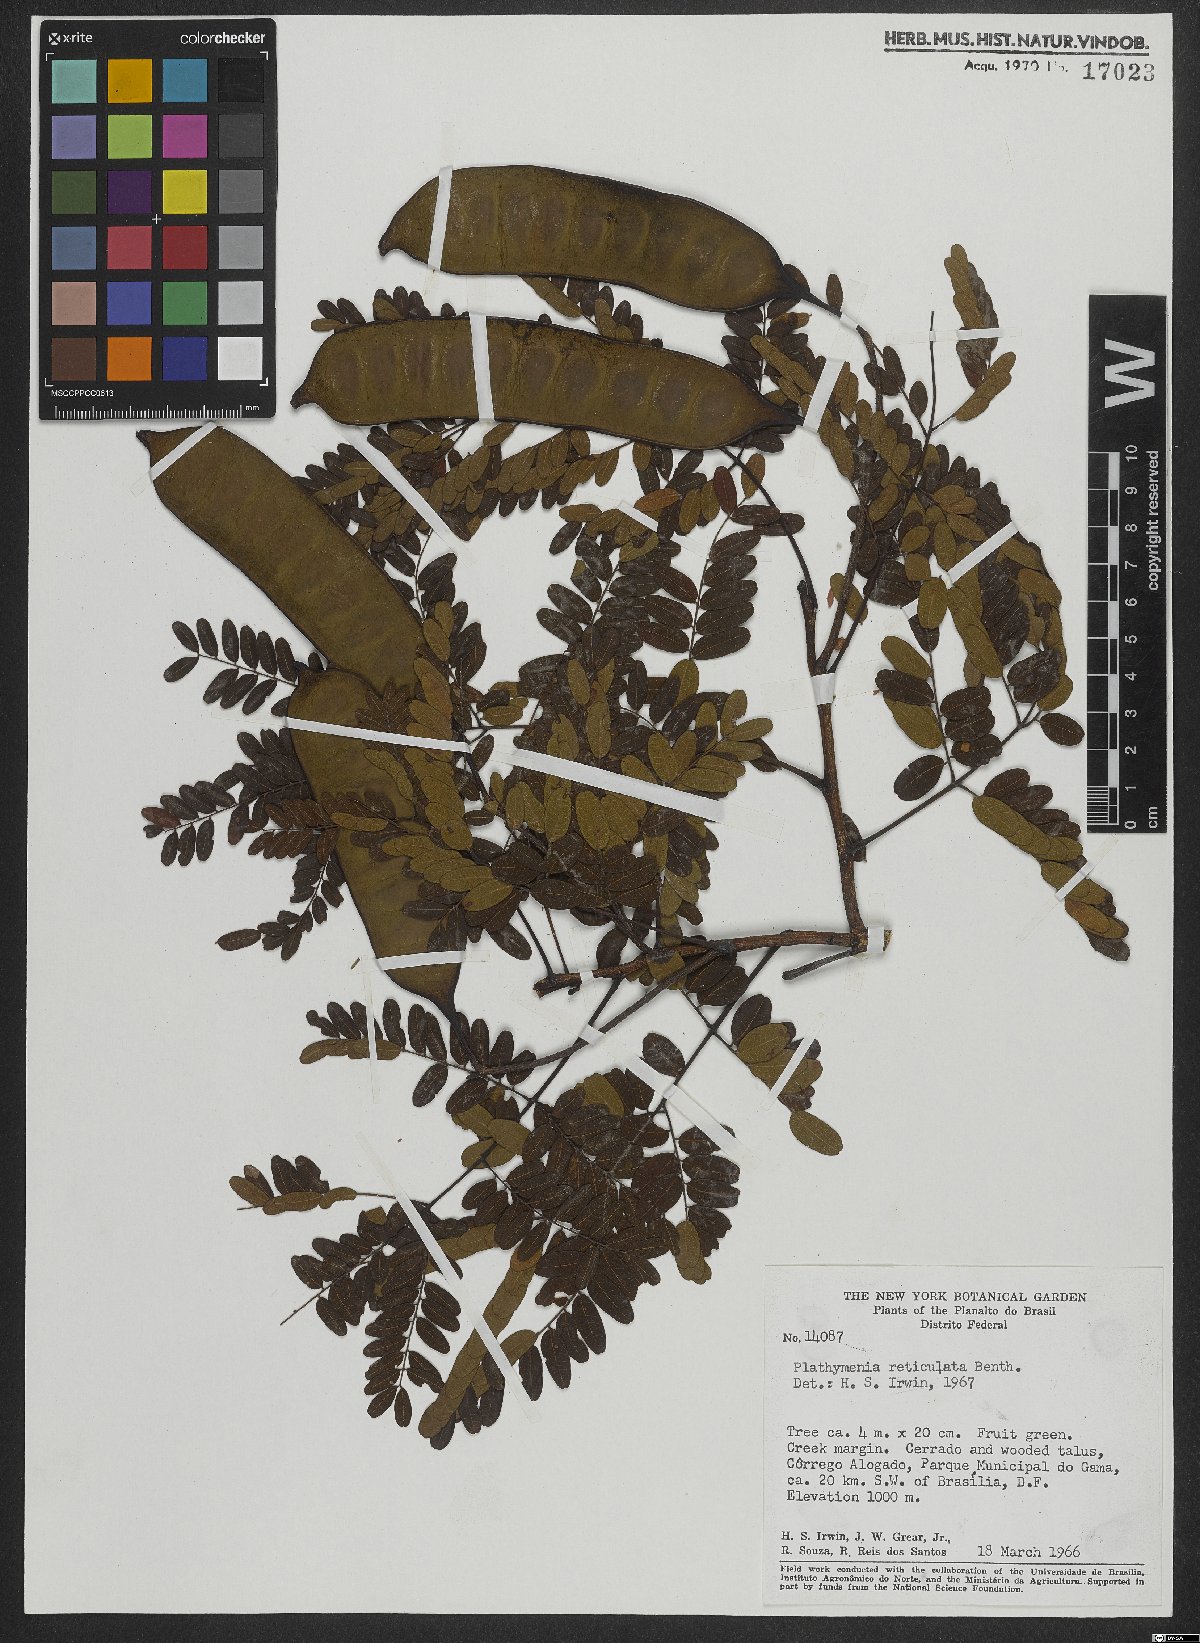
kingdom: Plantae
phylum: Tracheophyta
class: Magnoliopsida
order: Fabales
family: Fabaceae
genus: Plathymenia
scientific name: Plathymenia reticulata
